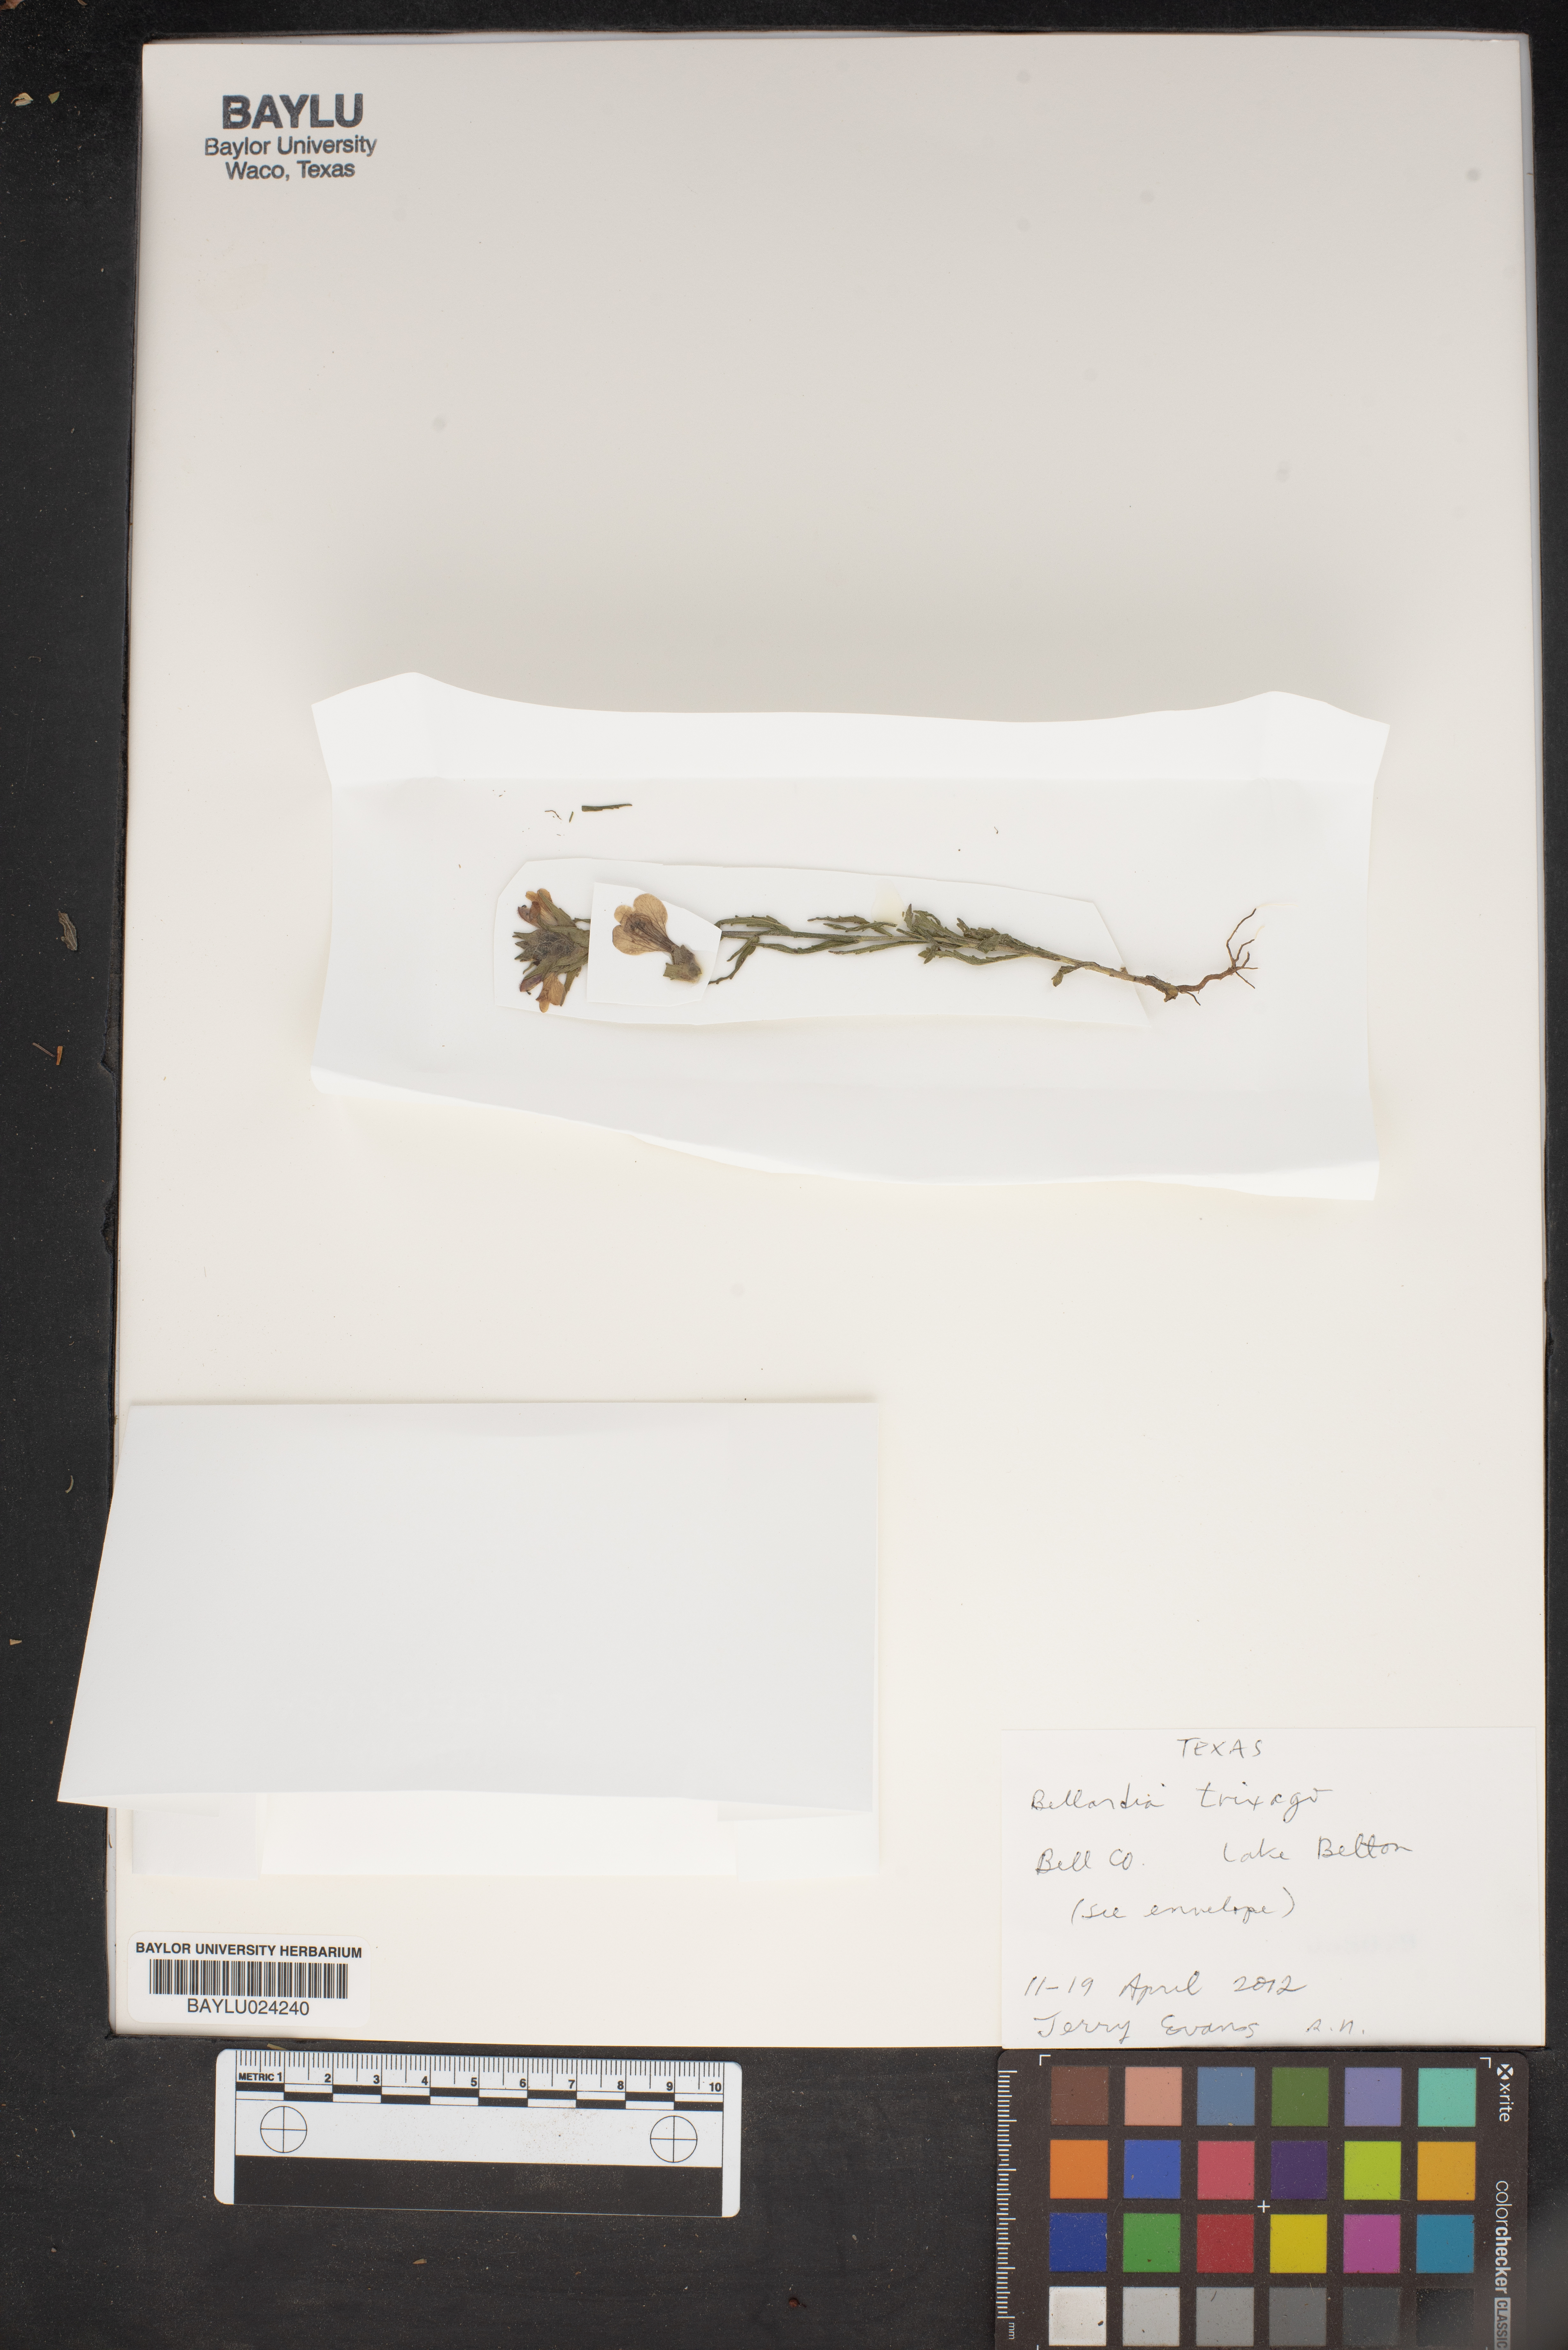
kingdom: Plantae
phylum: Tracheophyta
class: Magnoliopsida
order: Lamiales
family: Orobanchaceae
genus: Bellardia
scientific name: Bellardia trixago
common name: Mediterranean lineseed
